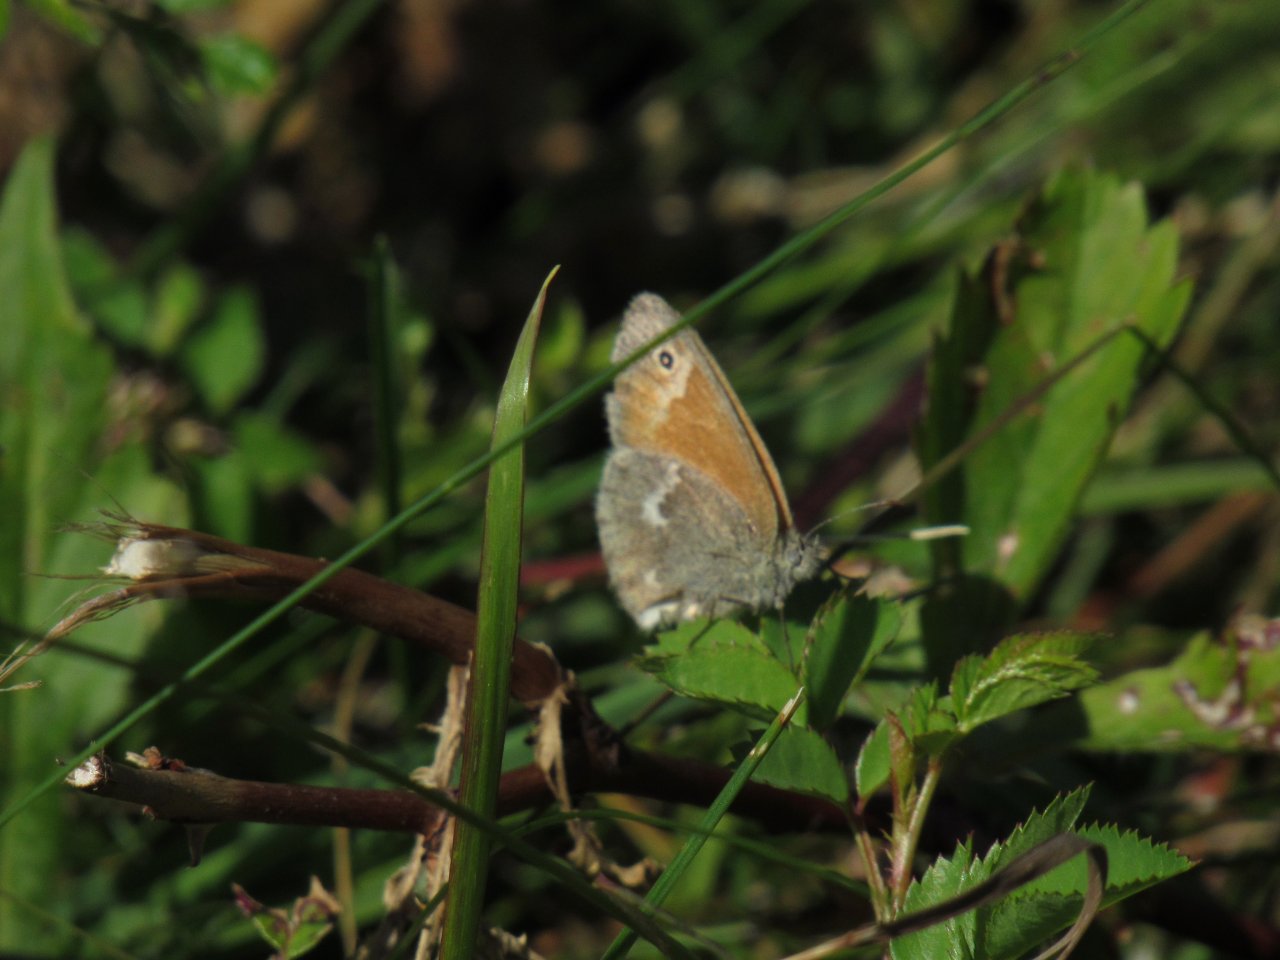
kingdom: Animalia
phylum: Arthropoda
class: Insecta
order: Lepidoptera
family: Nymphalidae
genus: Coenonympha
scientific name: Coenonympha tullia
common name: Large Heath
